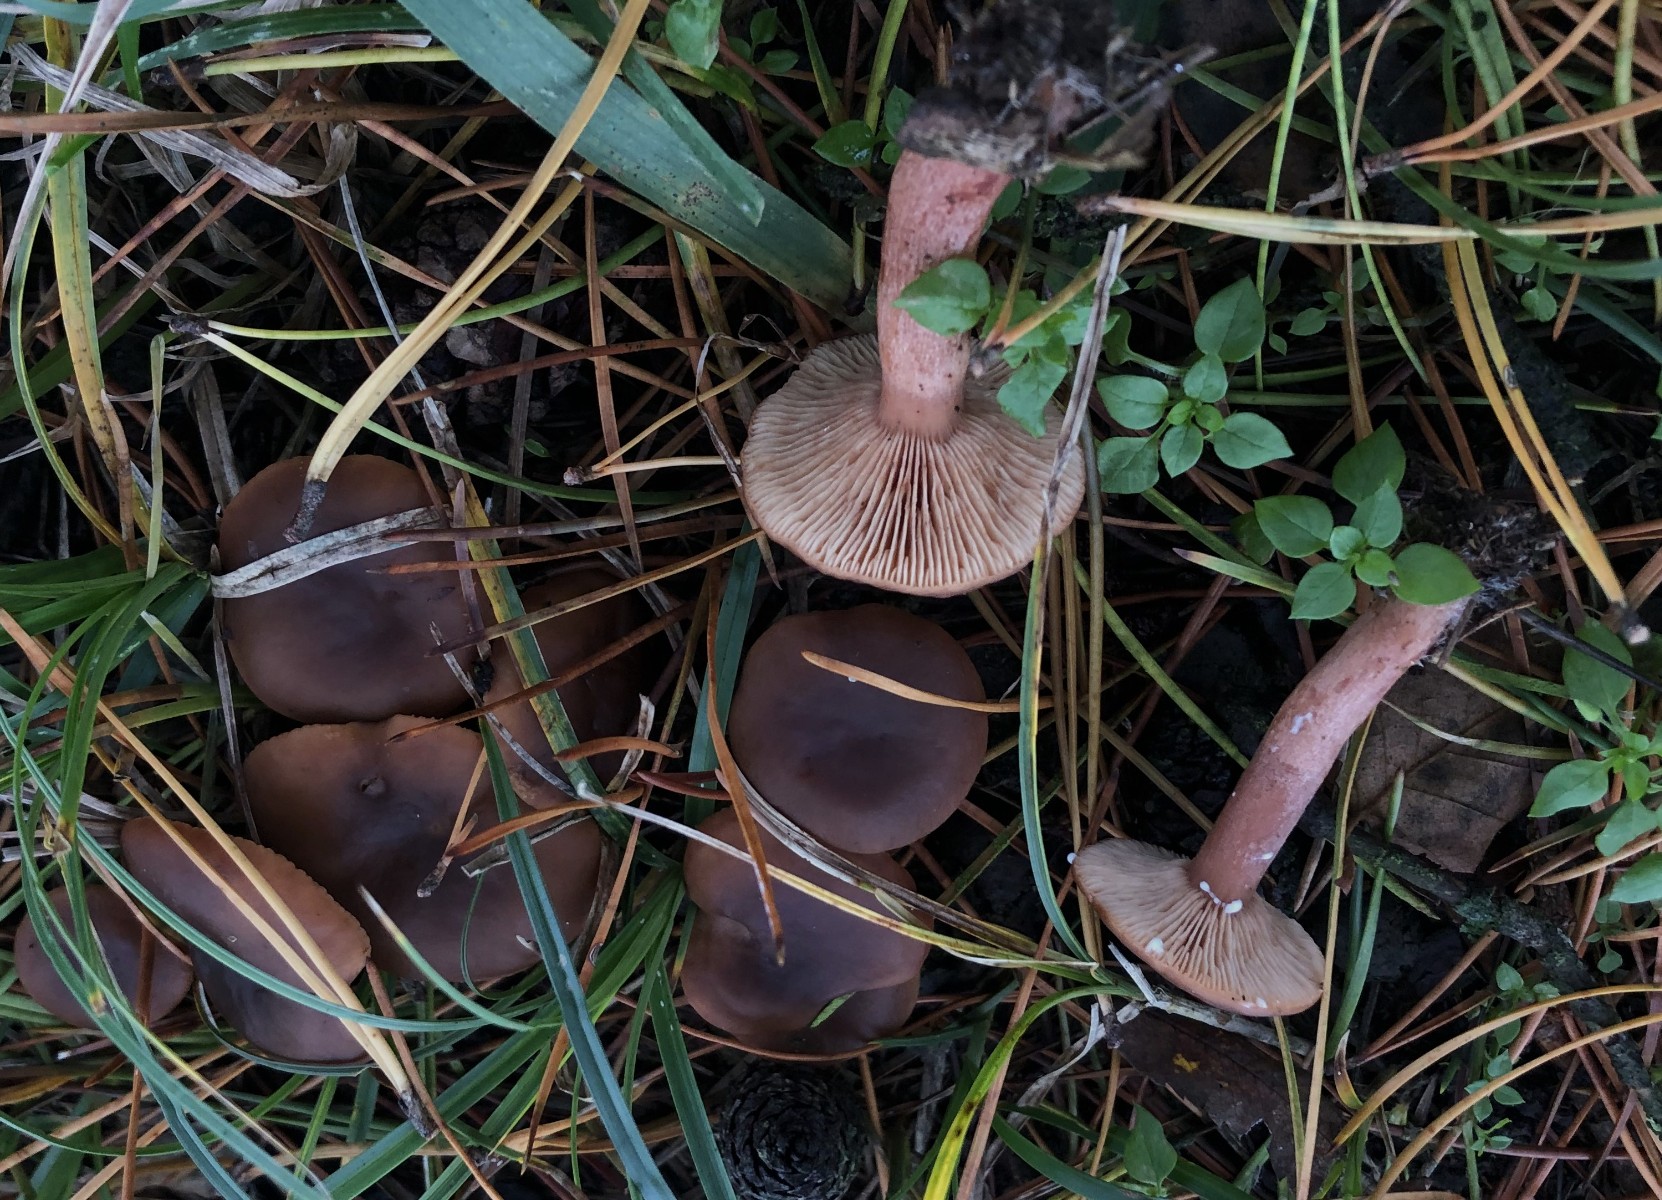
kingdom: Fungi
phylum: Basidiomycota
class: Agaricomycetes
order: Russulales
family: Russulaceae
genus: Lactarius
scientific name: Lactarius hepaticus
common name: leverbrun mælkehat
